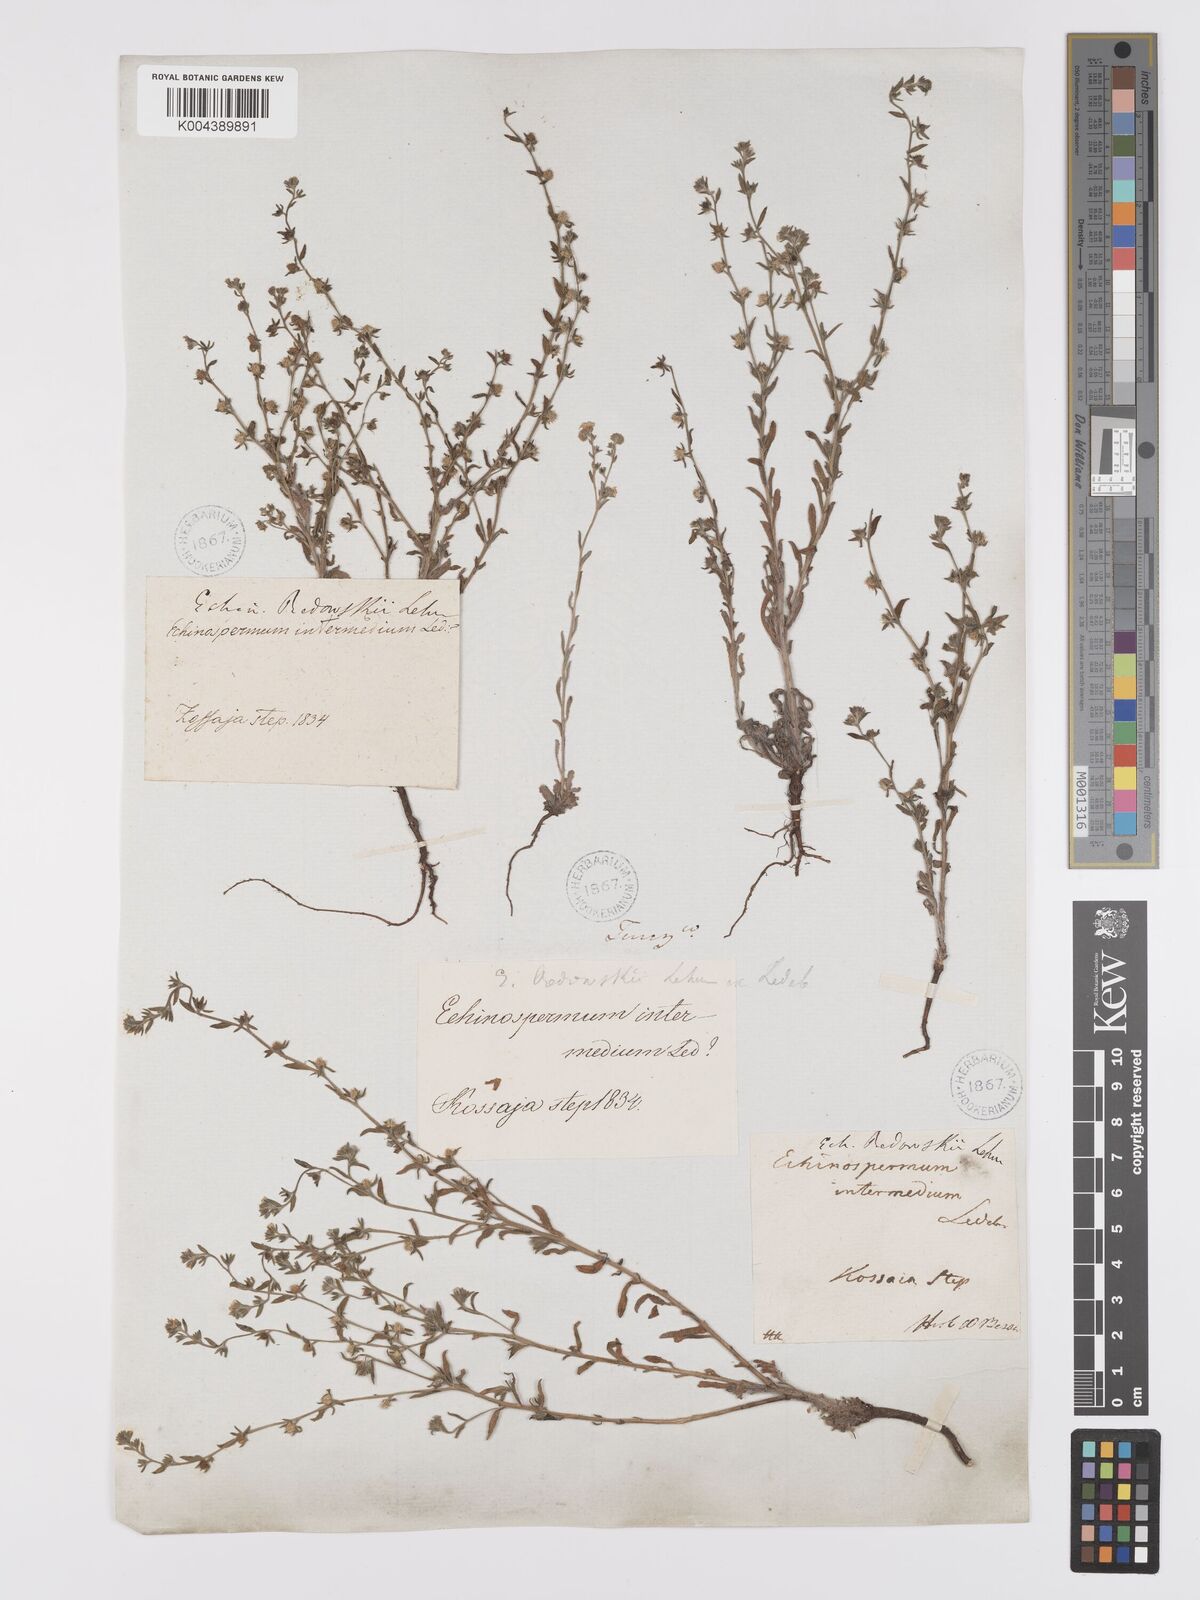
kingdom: Plantae
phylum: Tracheophyta
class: Magnoliopsida
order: Boraginales
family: Boraginaceae
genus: Lappula
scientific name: Lappula redowskii
